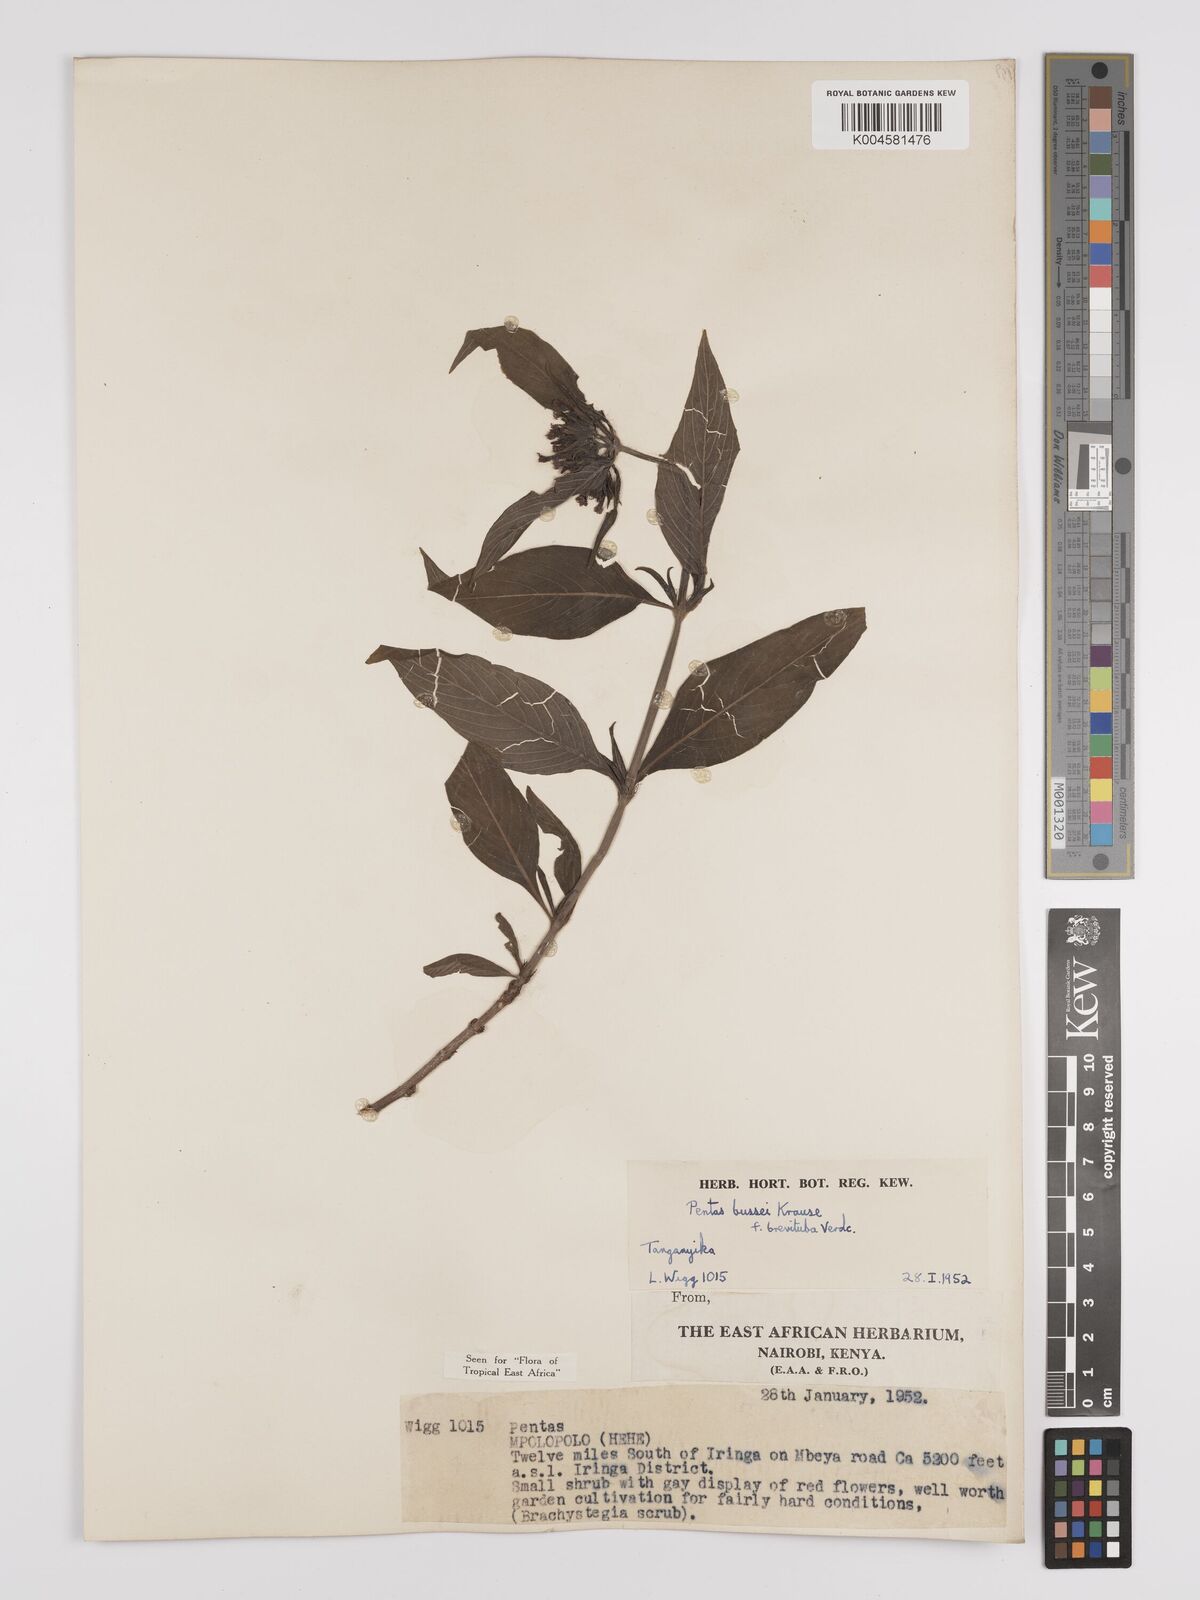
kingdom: Plantae
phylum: Tracheophyta
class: Magnoliopsida
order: Gentianales
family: Rubiaceae
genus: Rhodopentas
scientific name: Rhodopentas bussei
